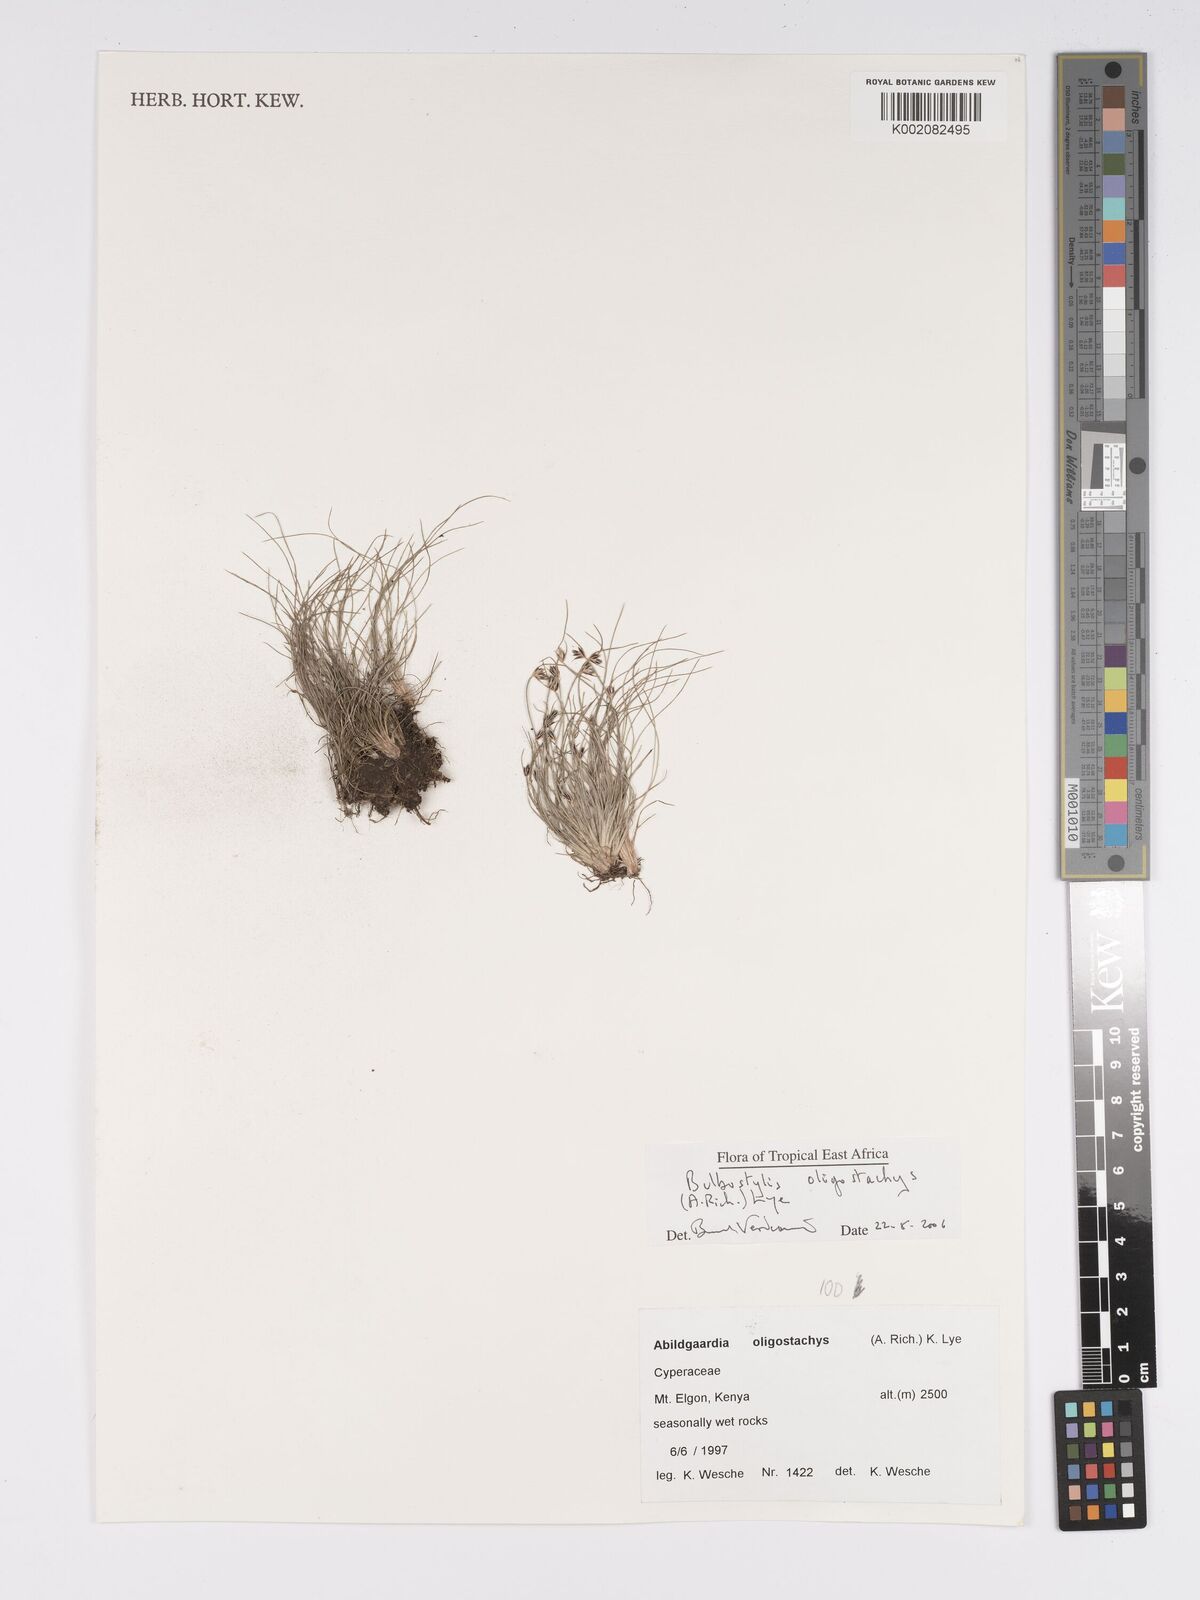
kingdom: Plantae
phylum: Tracheophyta
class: Liliopsida
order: Poales
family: Cyperaceae
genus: Bulbostylis
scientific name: Bulbostylis oligostachys
